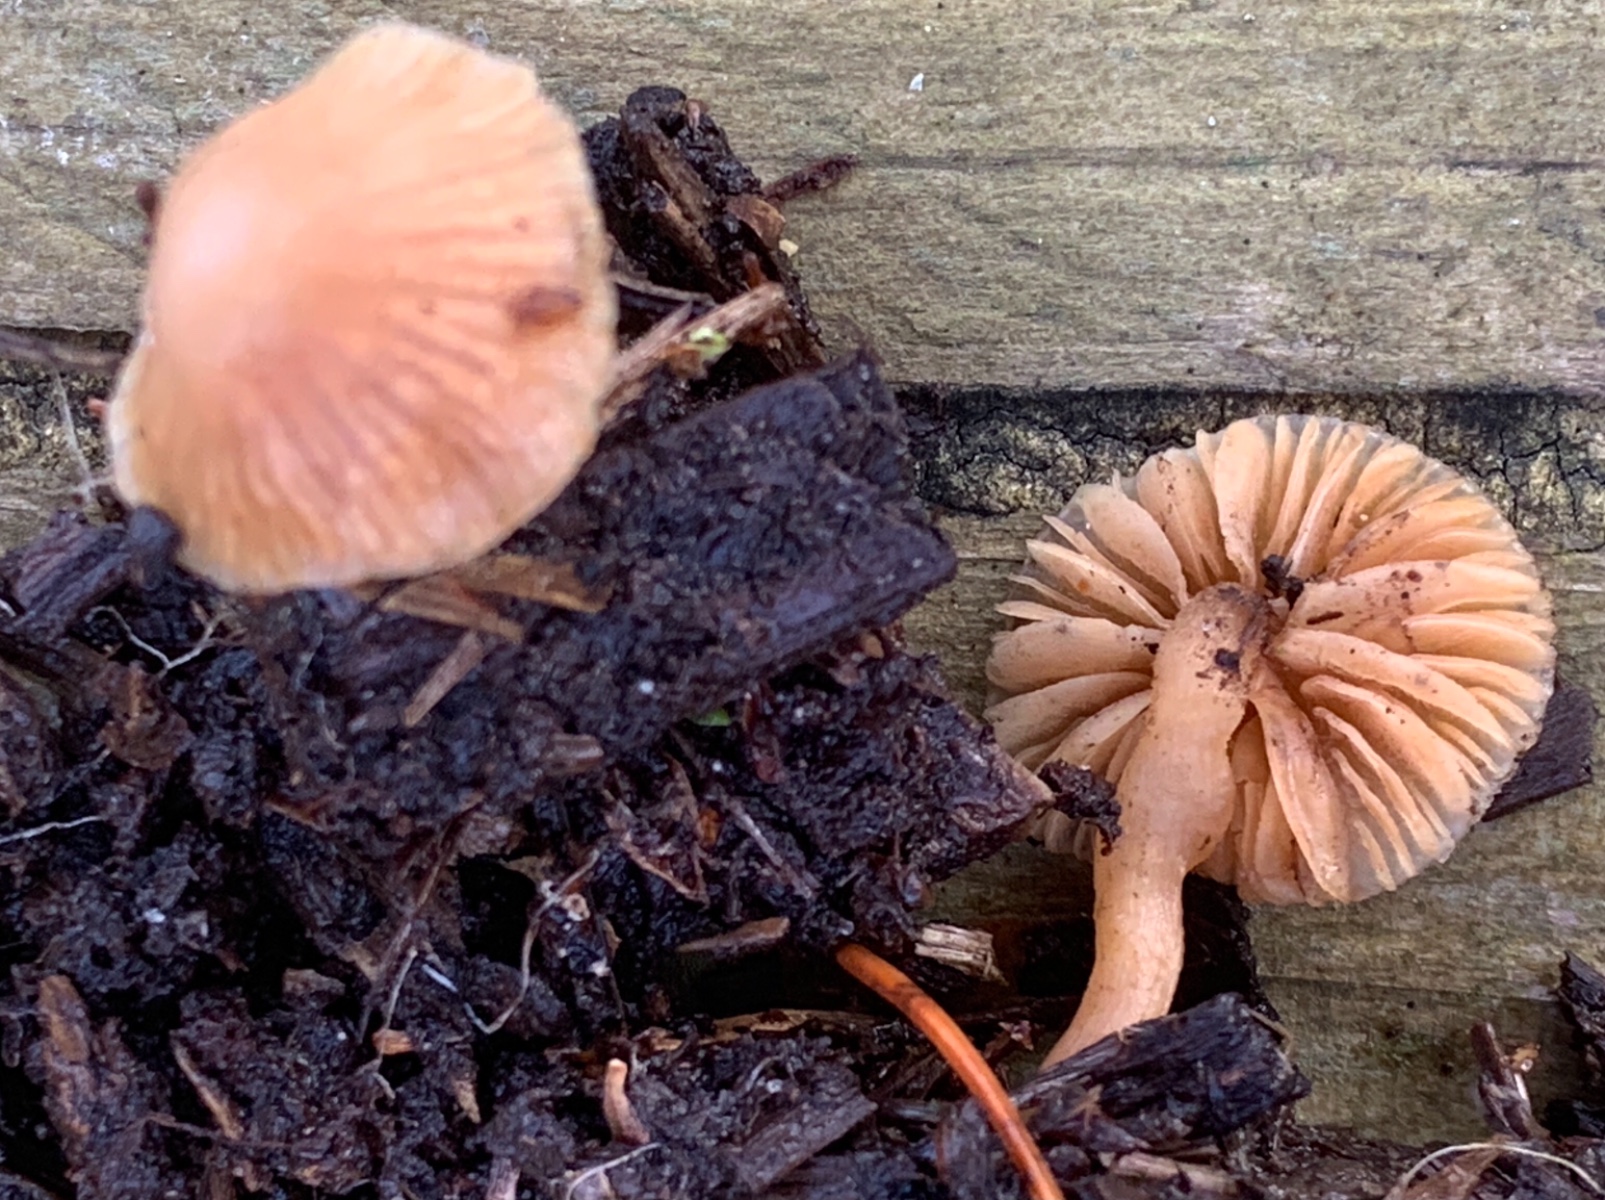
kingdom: Fungi
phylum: Basidiomycota
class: Agaricomycetes
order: Agaricales
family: Tubariaceae
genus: Tubaria
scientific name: Tubaria furfuracea
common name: kliddet fnughat
